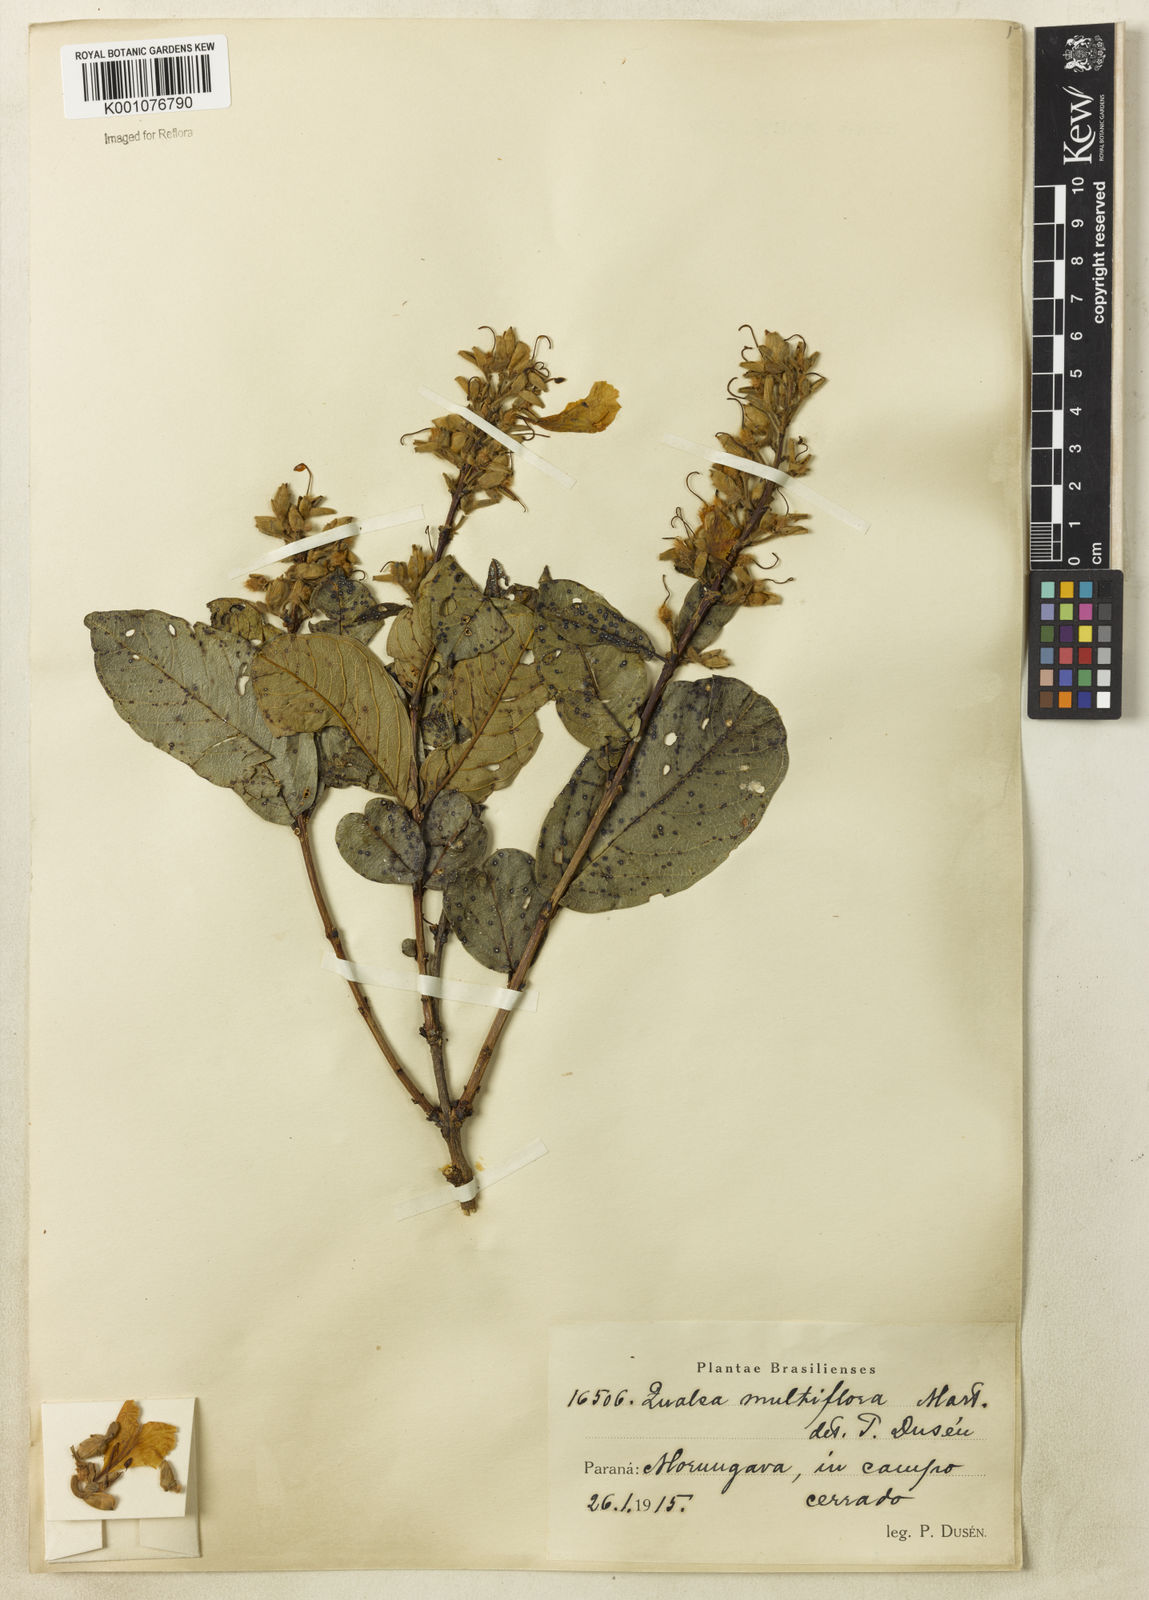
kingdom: Plantae
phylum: Tracheophyta
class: Magnoliopsida
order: Myrtales
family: Vochysiaceae
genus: Qualea
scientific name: Qualea multiflora
